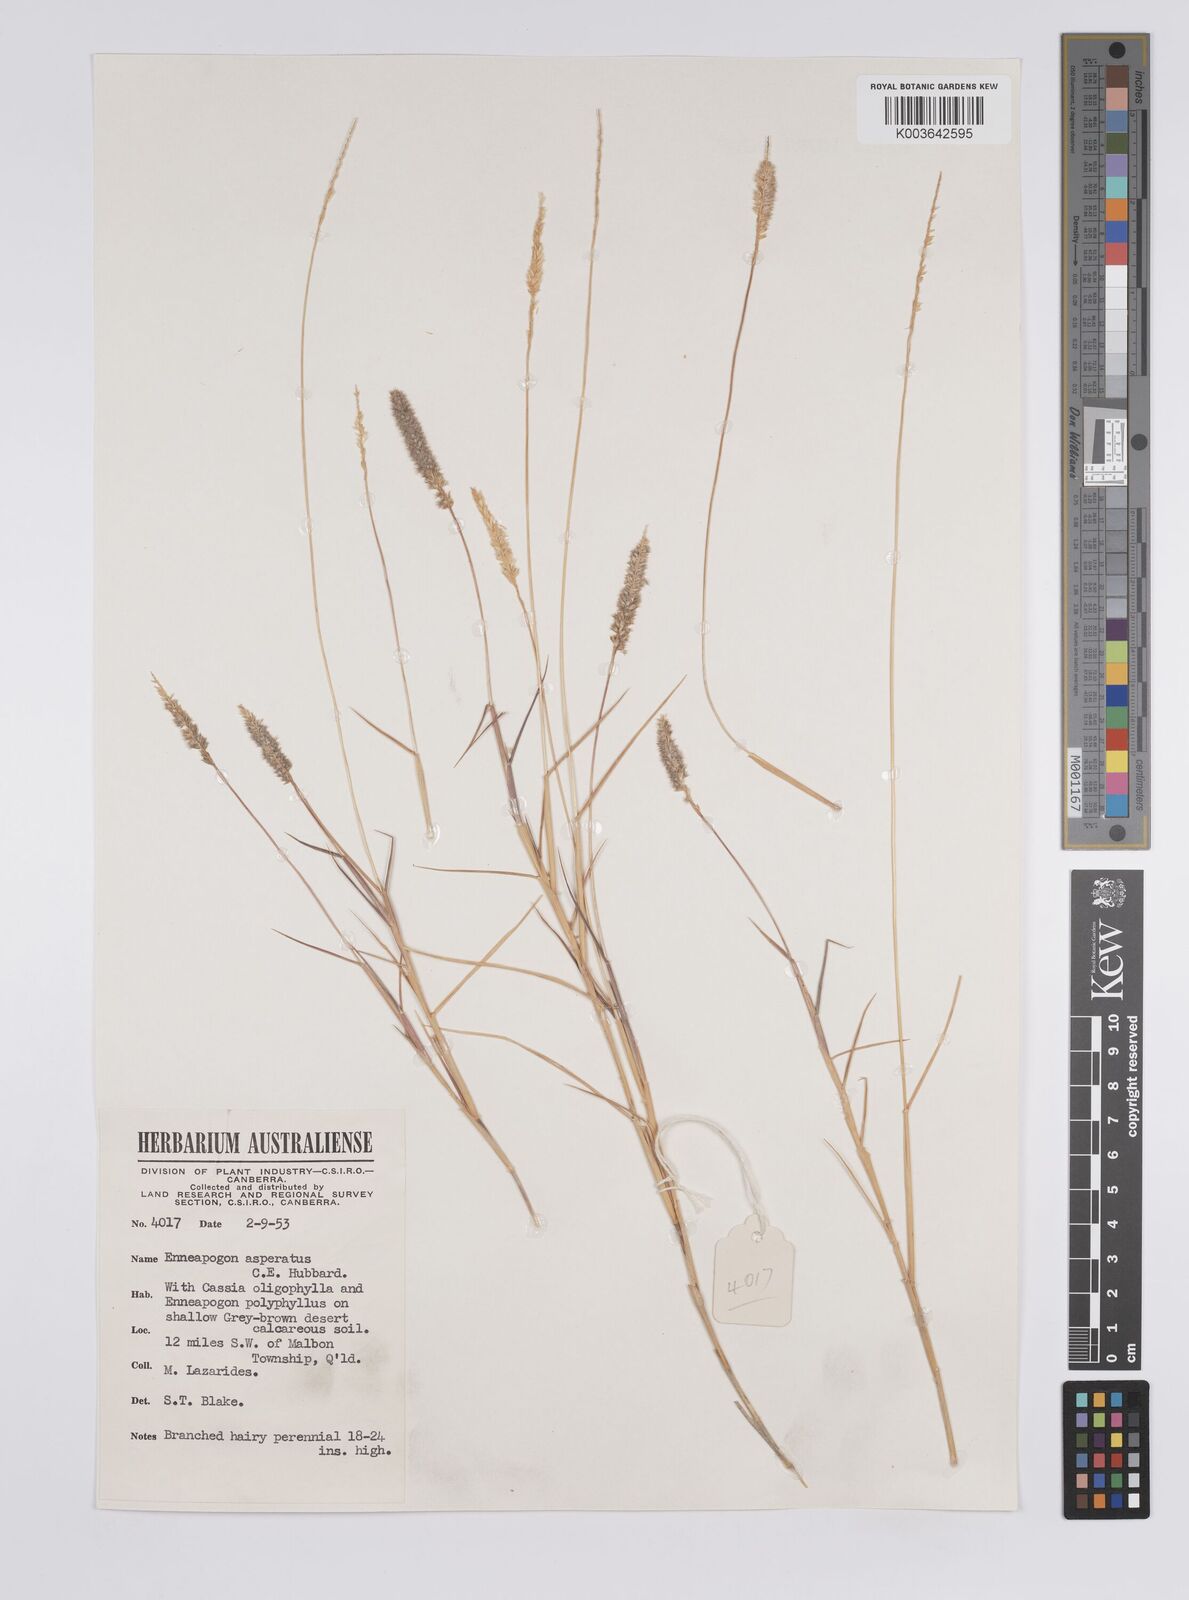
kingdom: Plantae
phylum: Tracheophyta
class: Liliopsida
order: Poales
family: Poaceae
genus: Enneapogon
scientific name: Enneapogon asperatus
